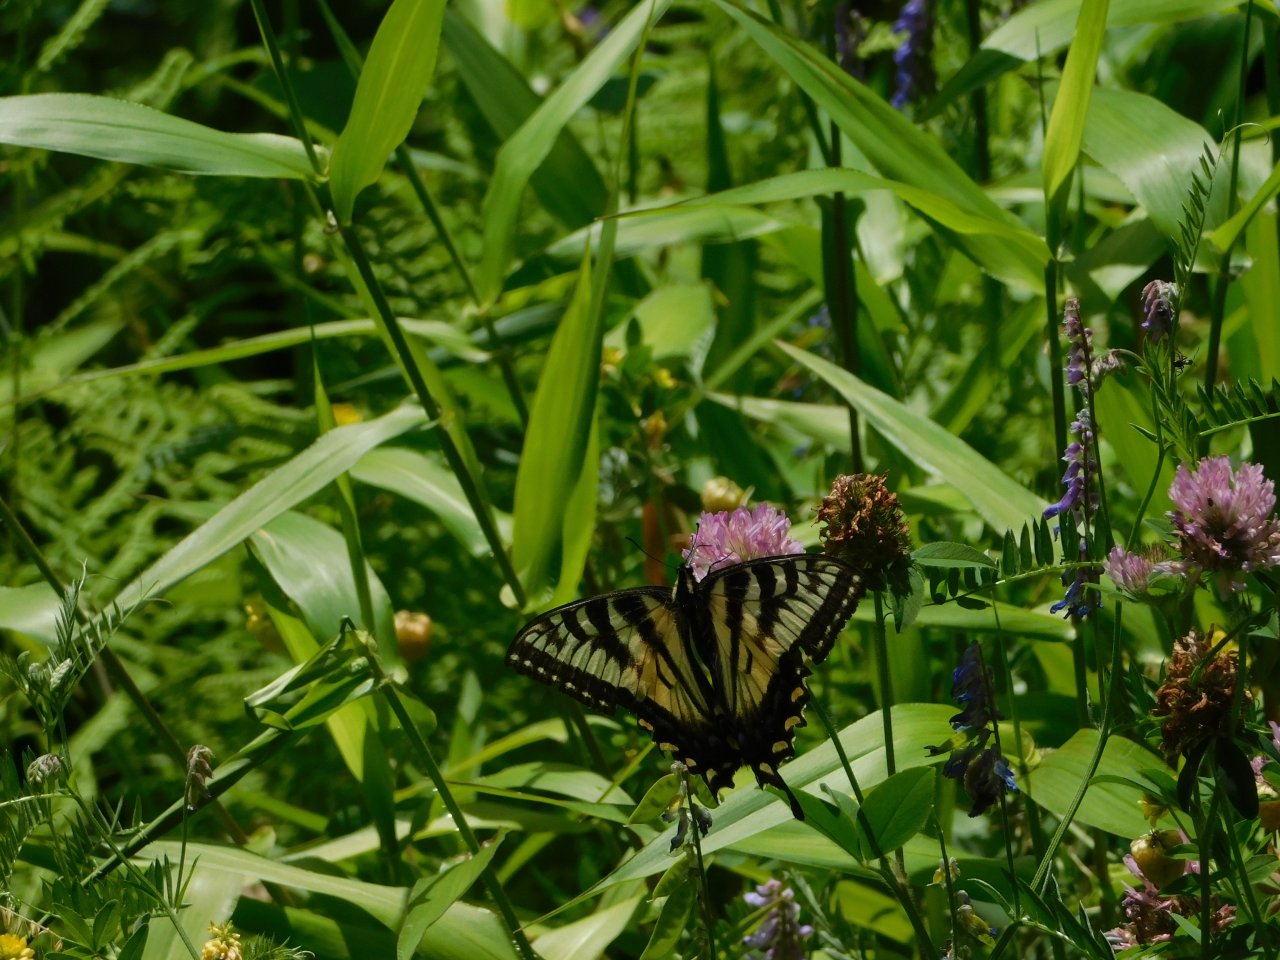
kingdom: Animalia
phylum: Arthropoda
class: Insecta
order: Lepidoptera
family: Papilionidae
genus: Pterourus
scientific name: Pterourus
